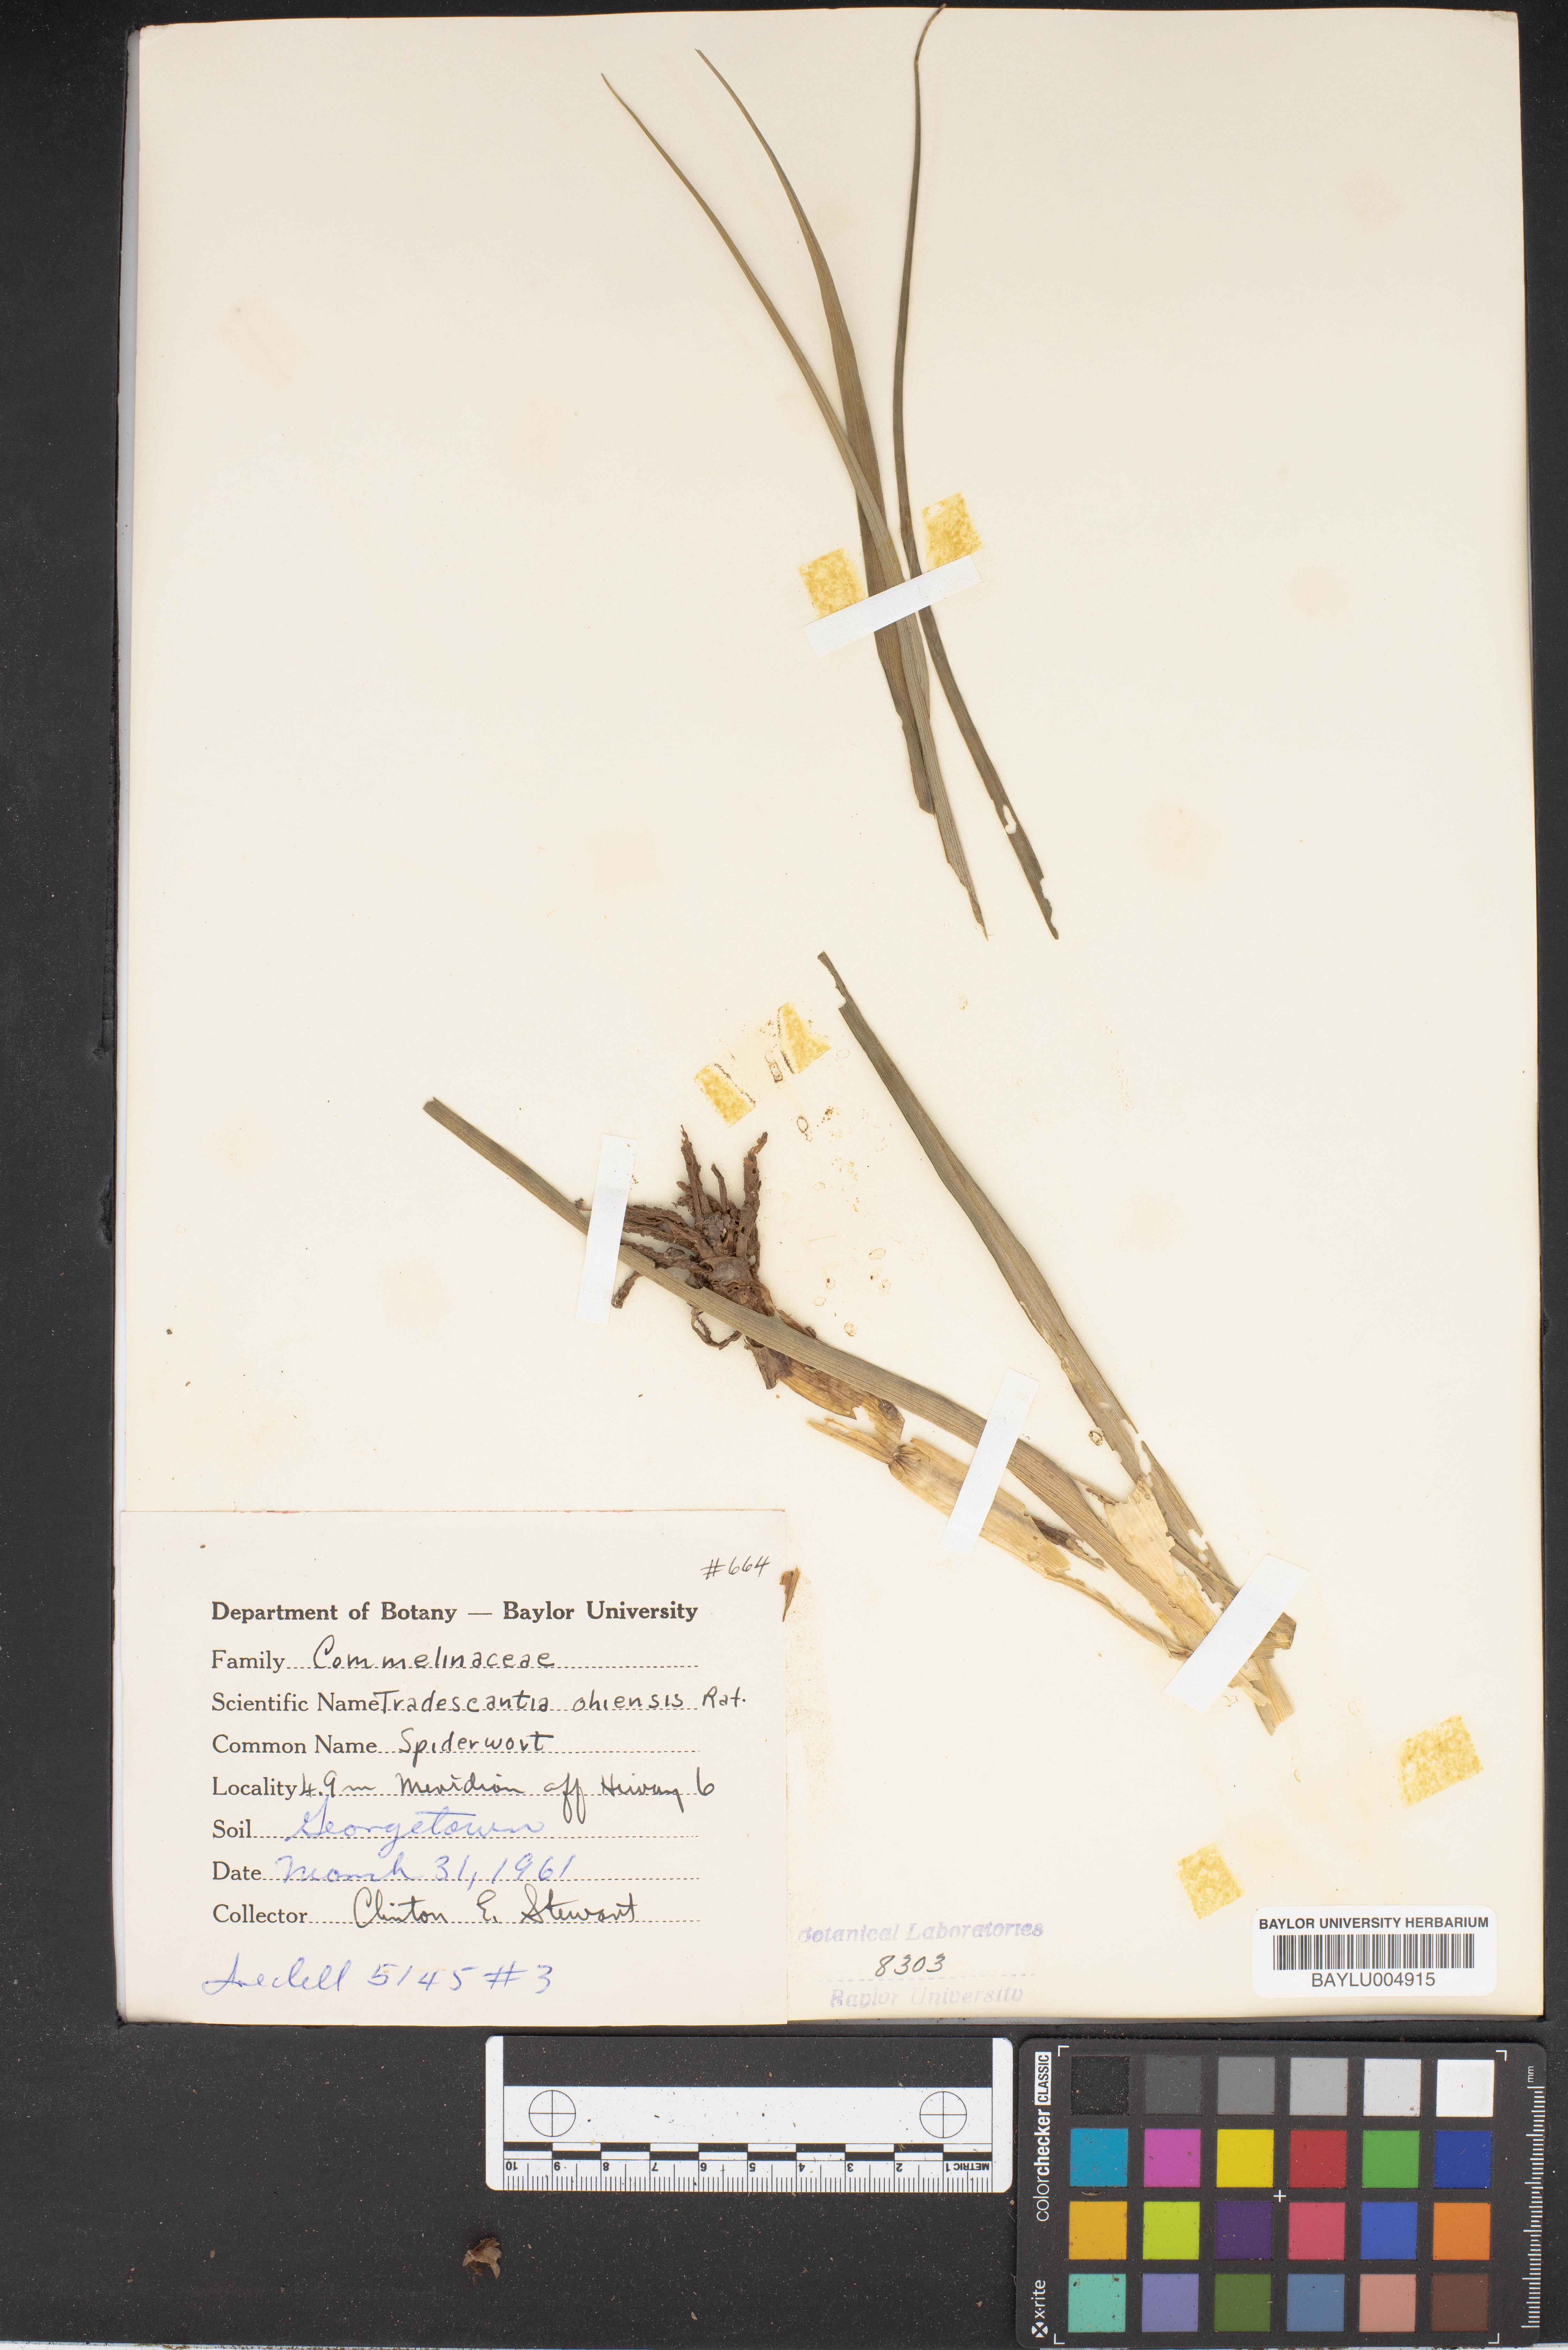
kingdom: Plantae
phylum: Tracheophyta
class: Liliopsida
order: Commelinales
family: Commelinaceae
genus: Tradescantia
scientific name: Tradescantia ohiensis
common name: Ohio spiderwort
